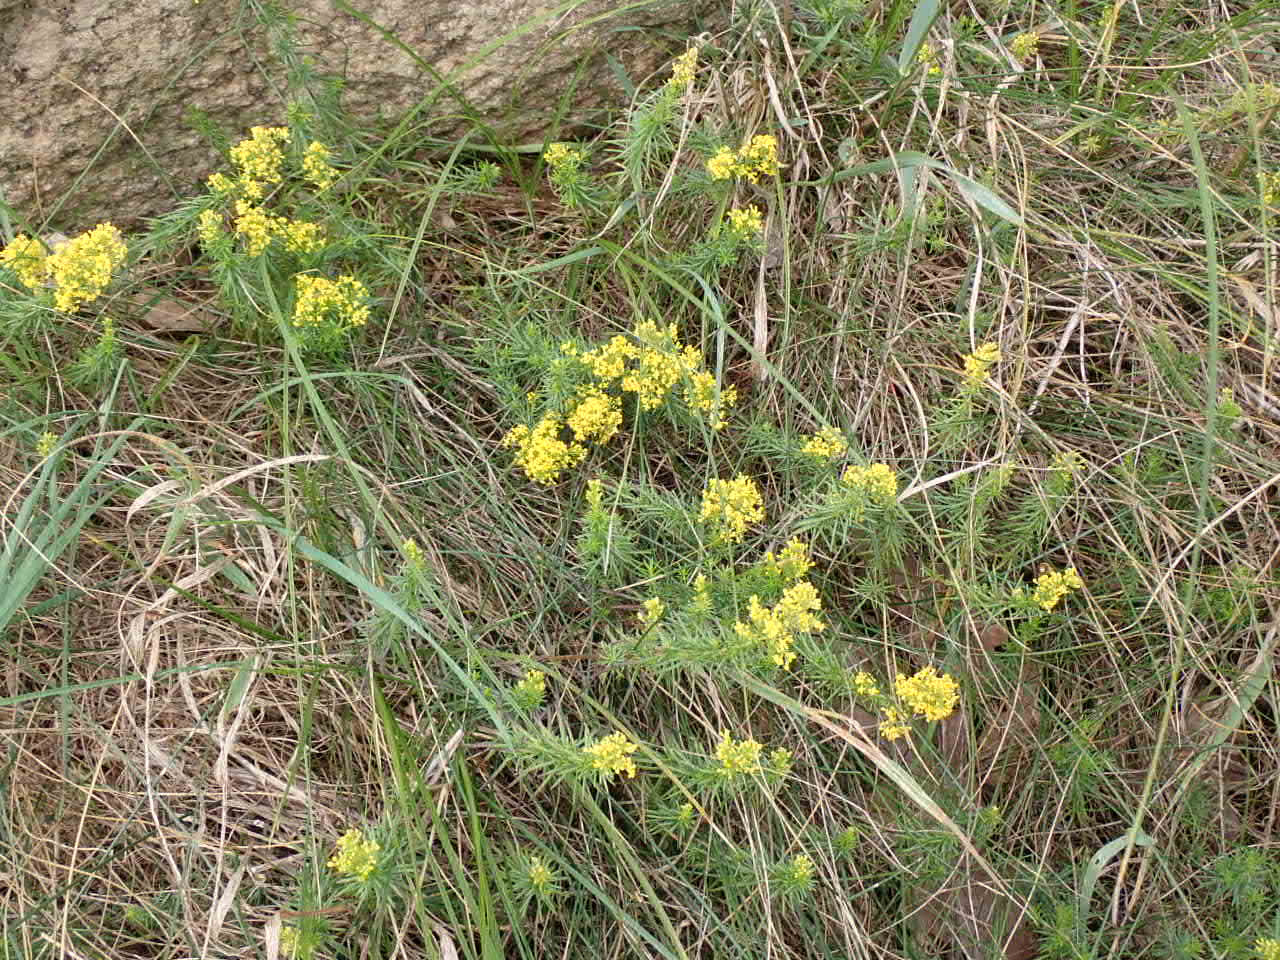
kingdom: Plantae
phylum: Tracheophyta
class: Magnoliopsida
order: Gentianales
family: Rubiaceae
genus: Galium
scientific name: Galium verum
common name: Gul snerre
